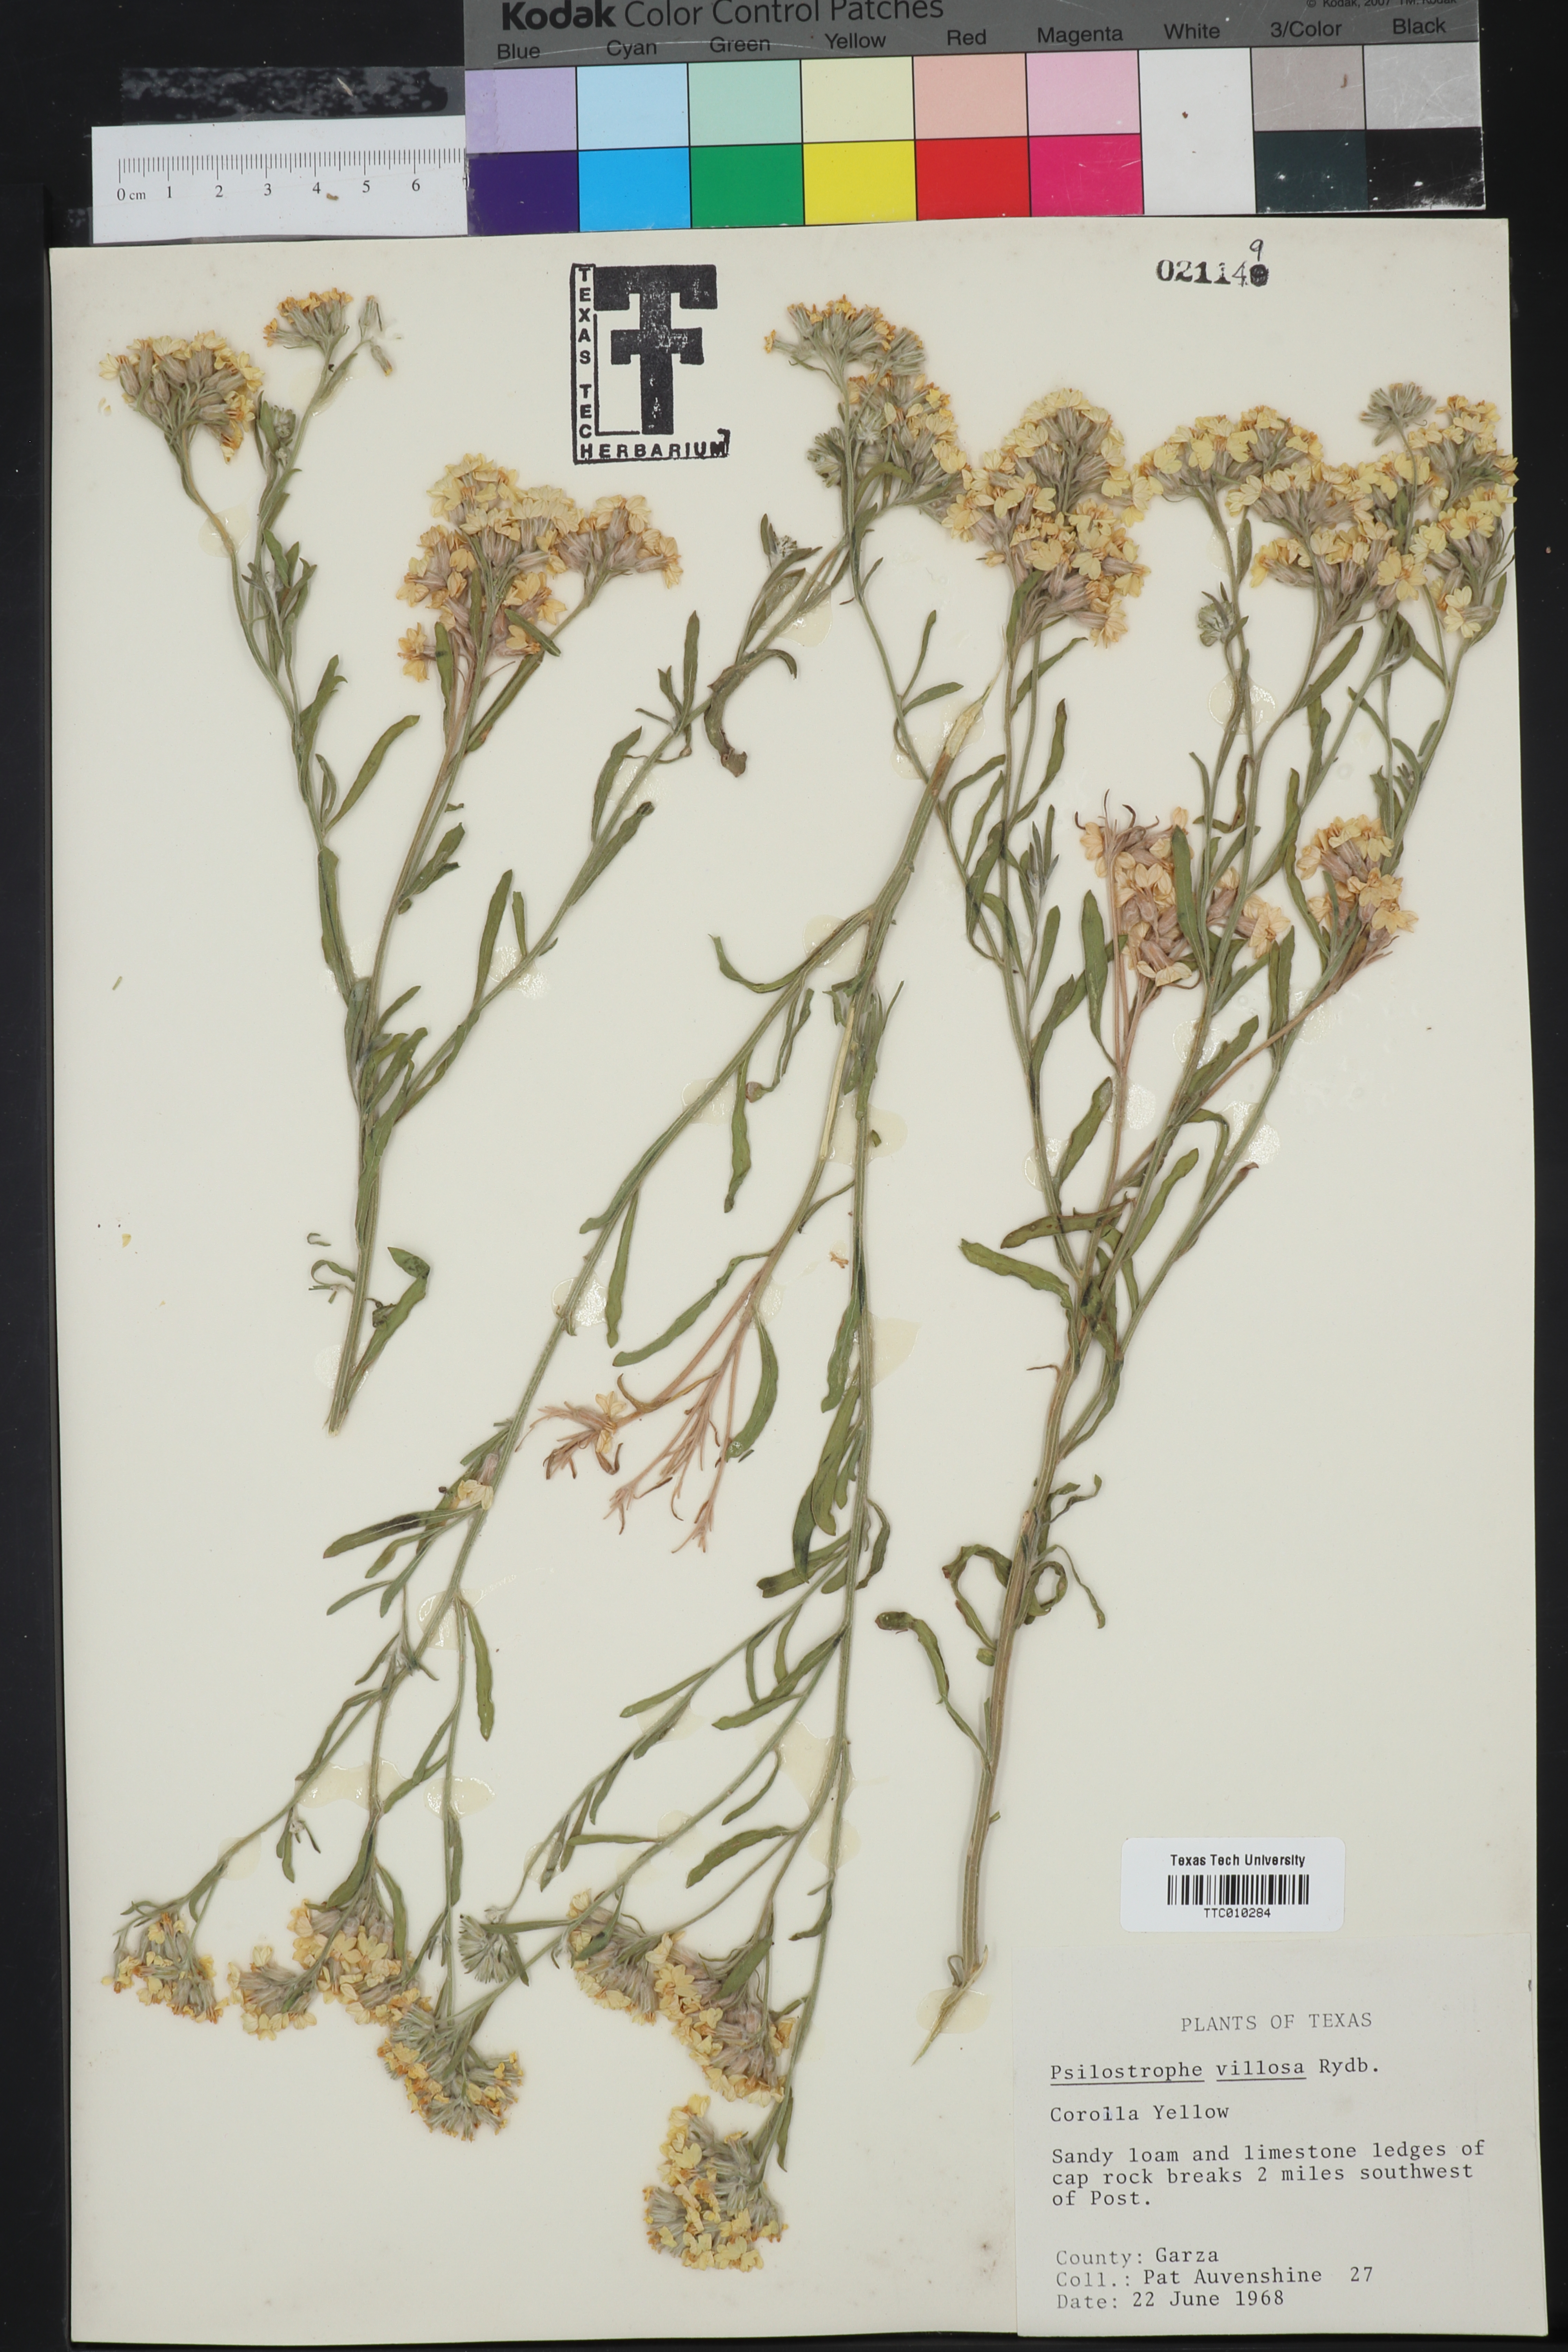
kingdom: Plantae
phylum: Tracheophyta
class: Magnoliopsida
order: Asterales
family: Asteraceae
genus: Psilostrophe
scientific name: Psilostrophe villosa
